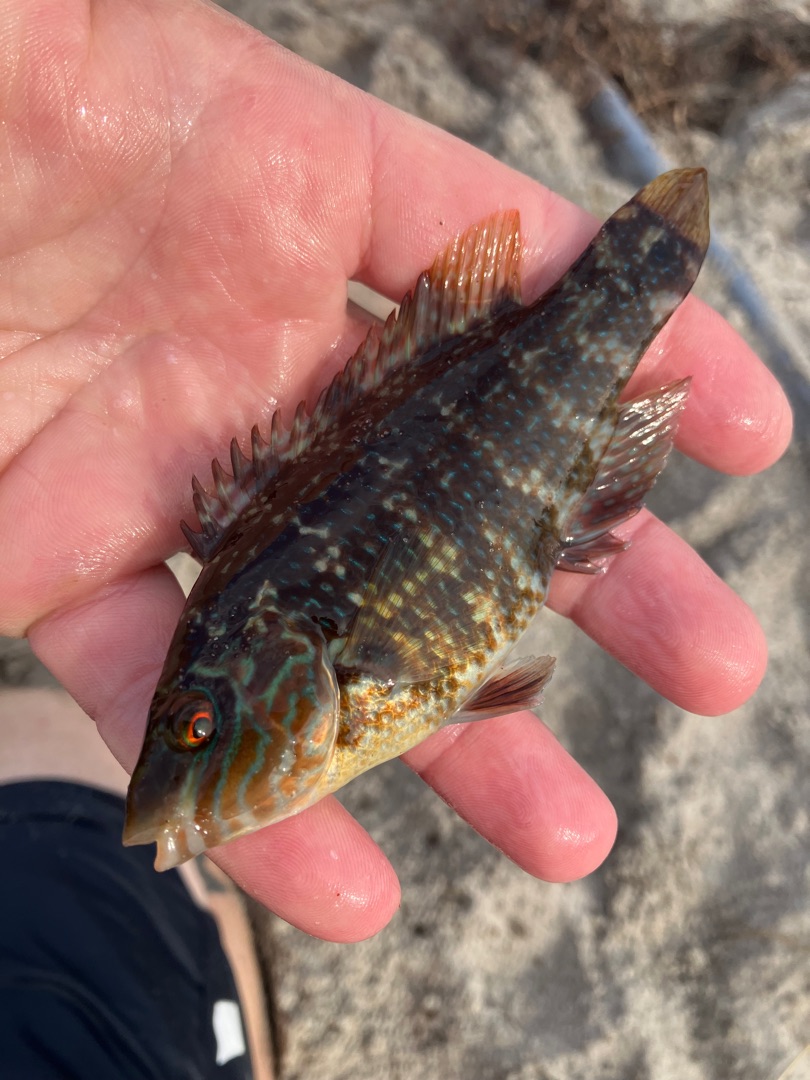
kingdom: Animalia
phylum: Chordata
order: Perciformes
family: Labridae
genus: Symphodus
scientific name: Symphodus melops
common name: Savgylte
